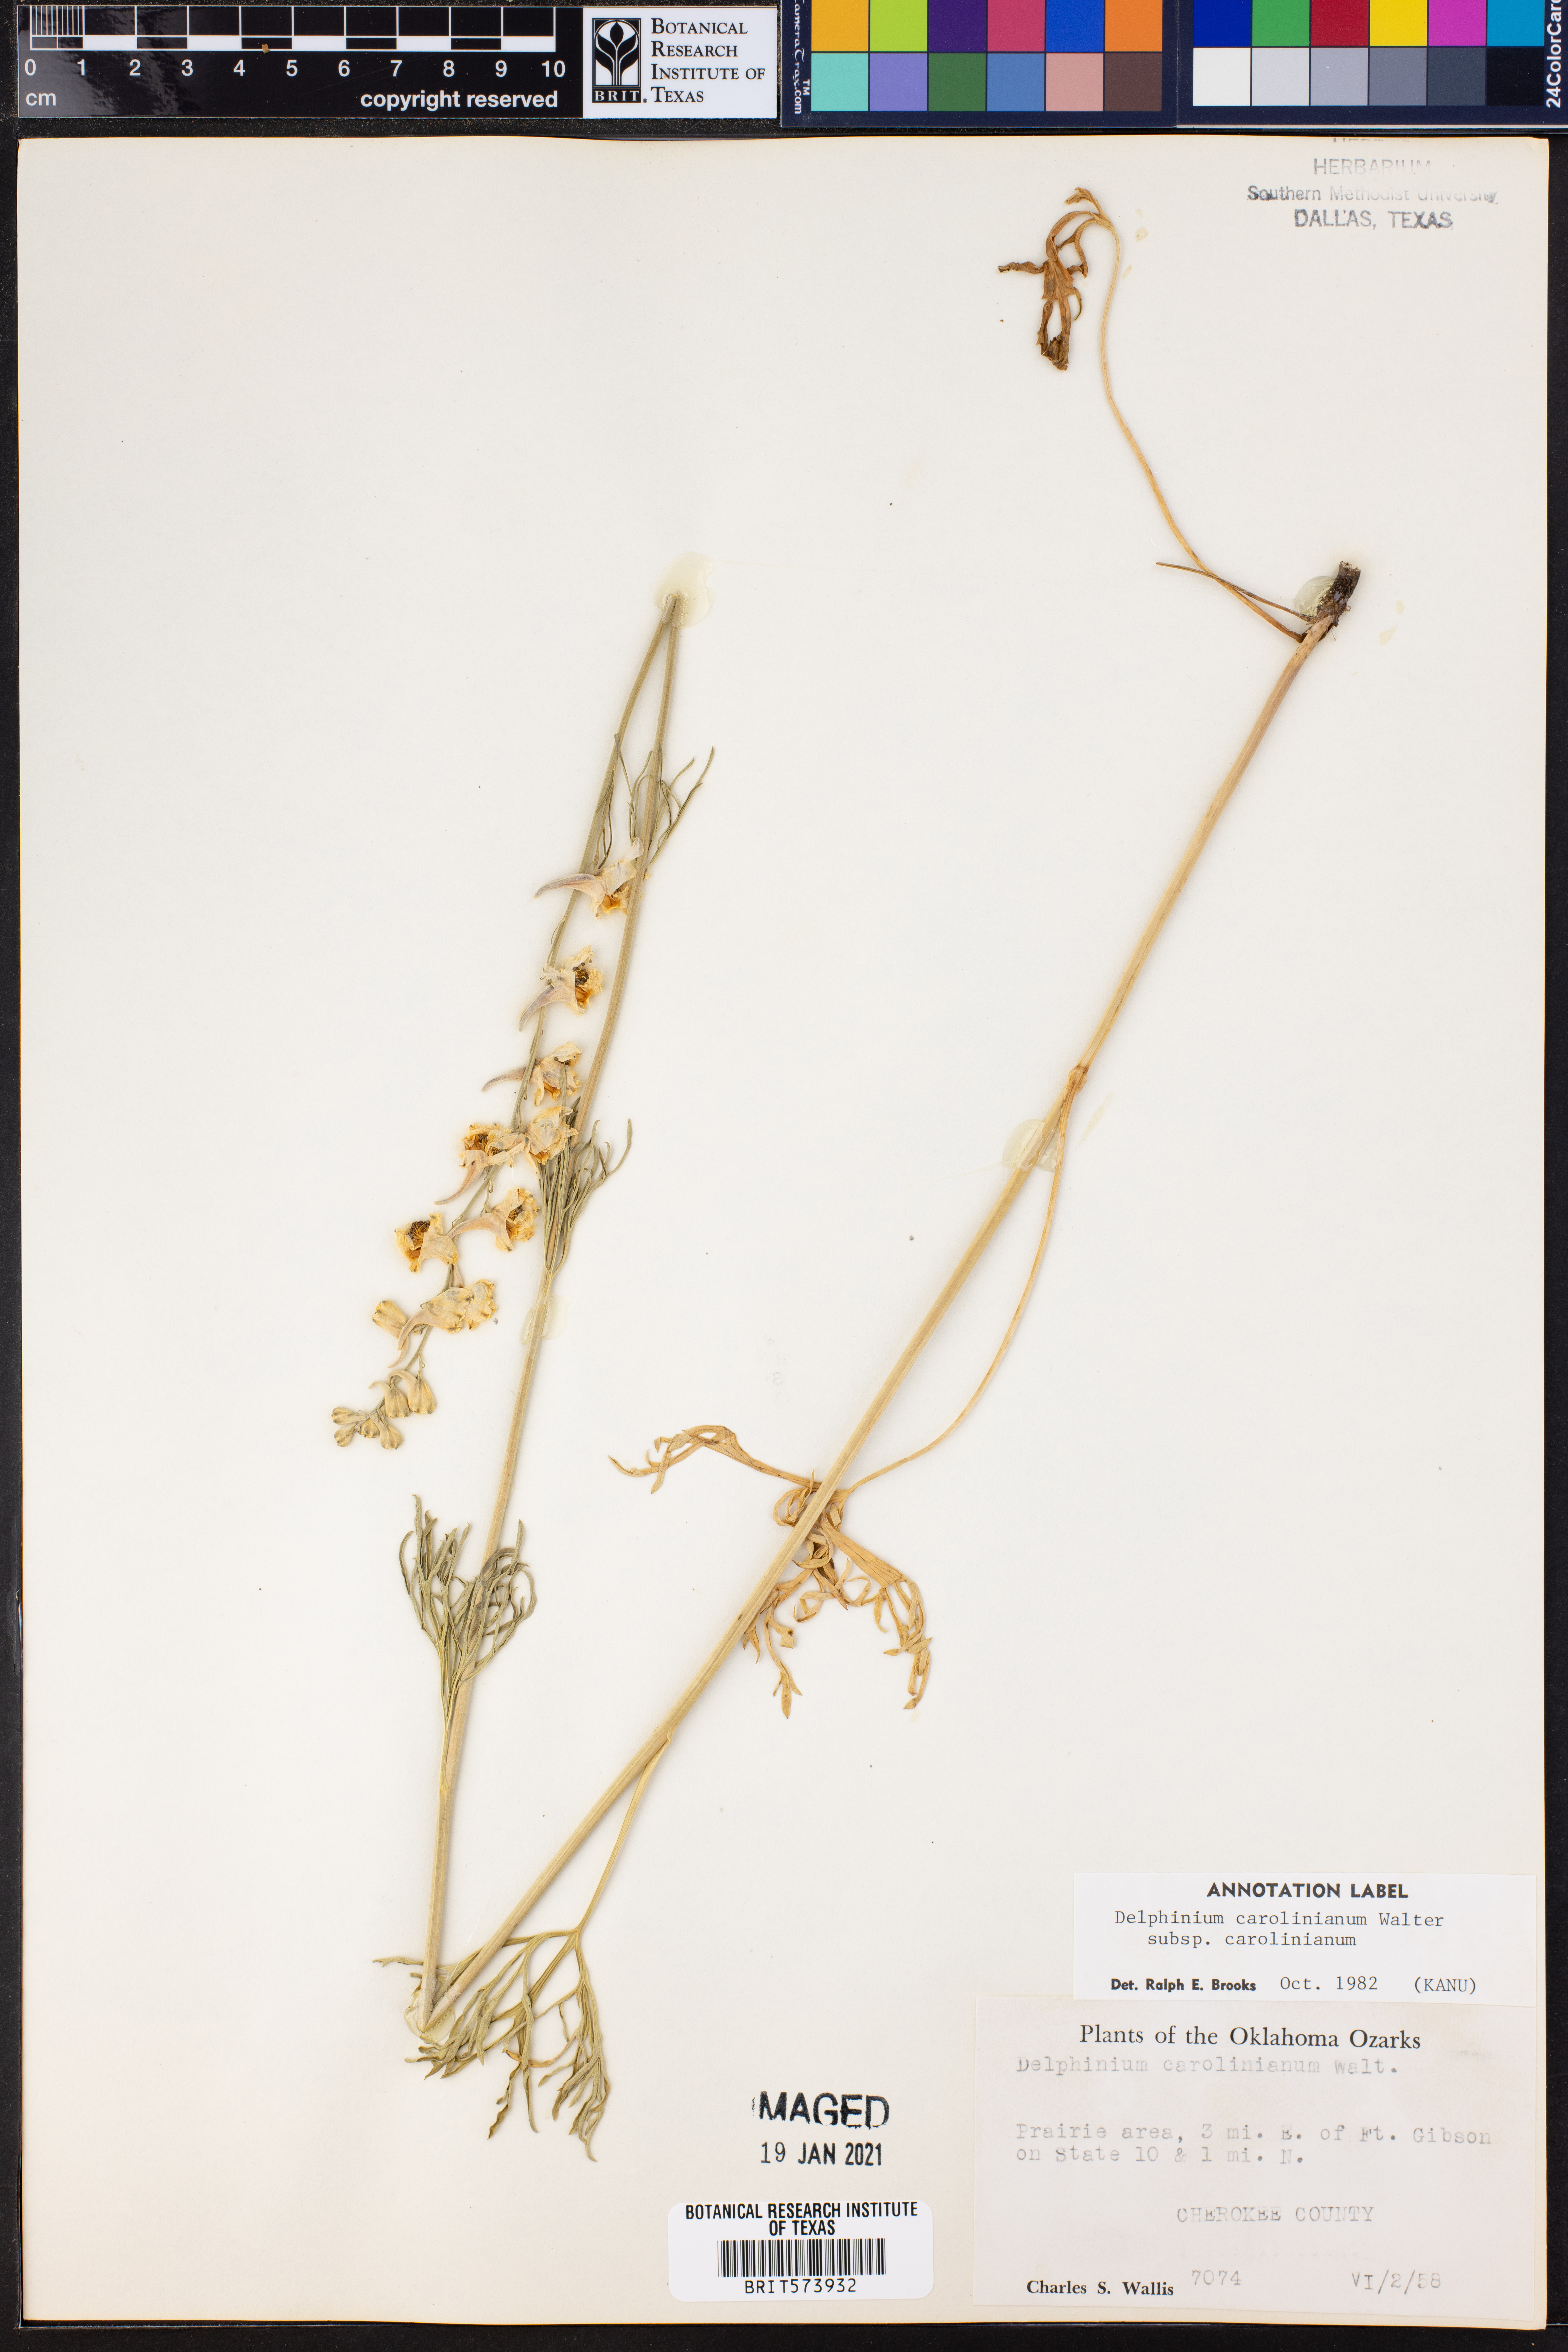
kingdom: Plantae
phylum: Tracheophyta
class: Magnoliopsida
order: Ranunculales
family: Ranunculaceae
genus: Delphinium
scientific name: Delphinium carolinianum
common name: Carolina larkspur
